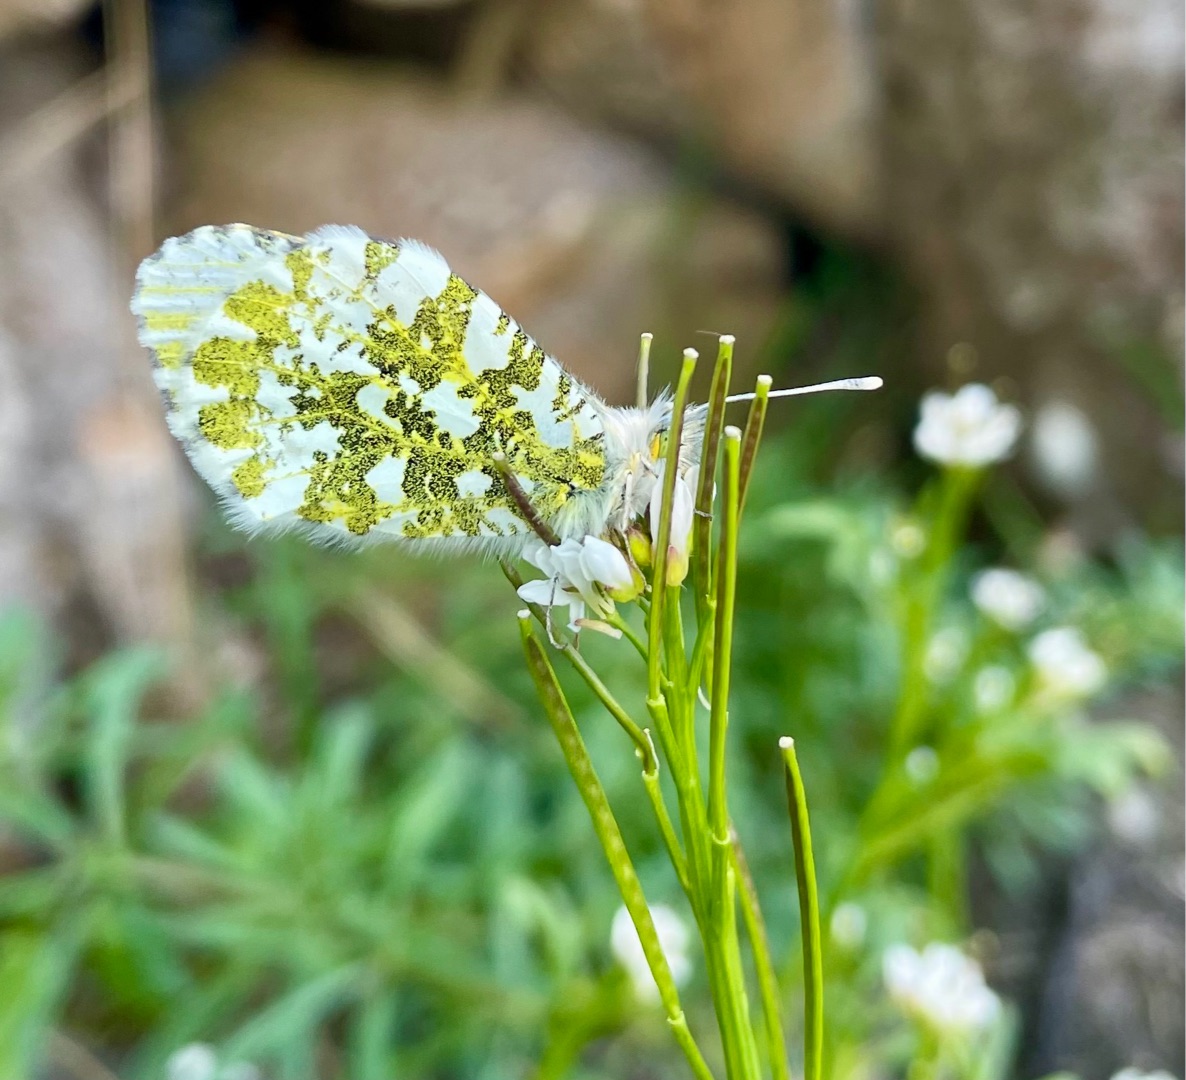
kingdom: Animalia
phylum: Arthropoda
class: Insecta
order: Lepidoptera
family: Pieridae
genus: Anthocharis
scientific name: Anthocharis cardamines
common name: Aurora
